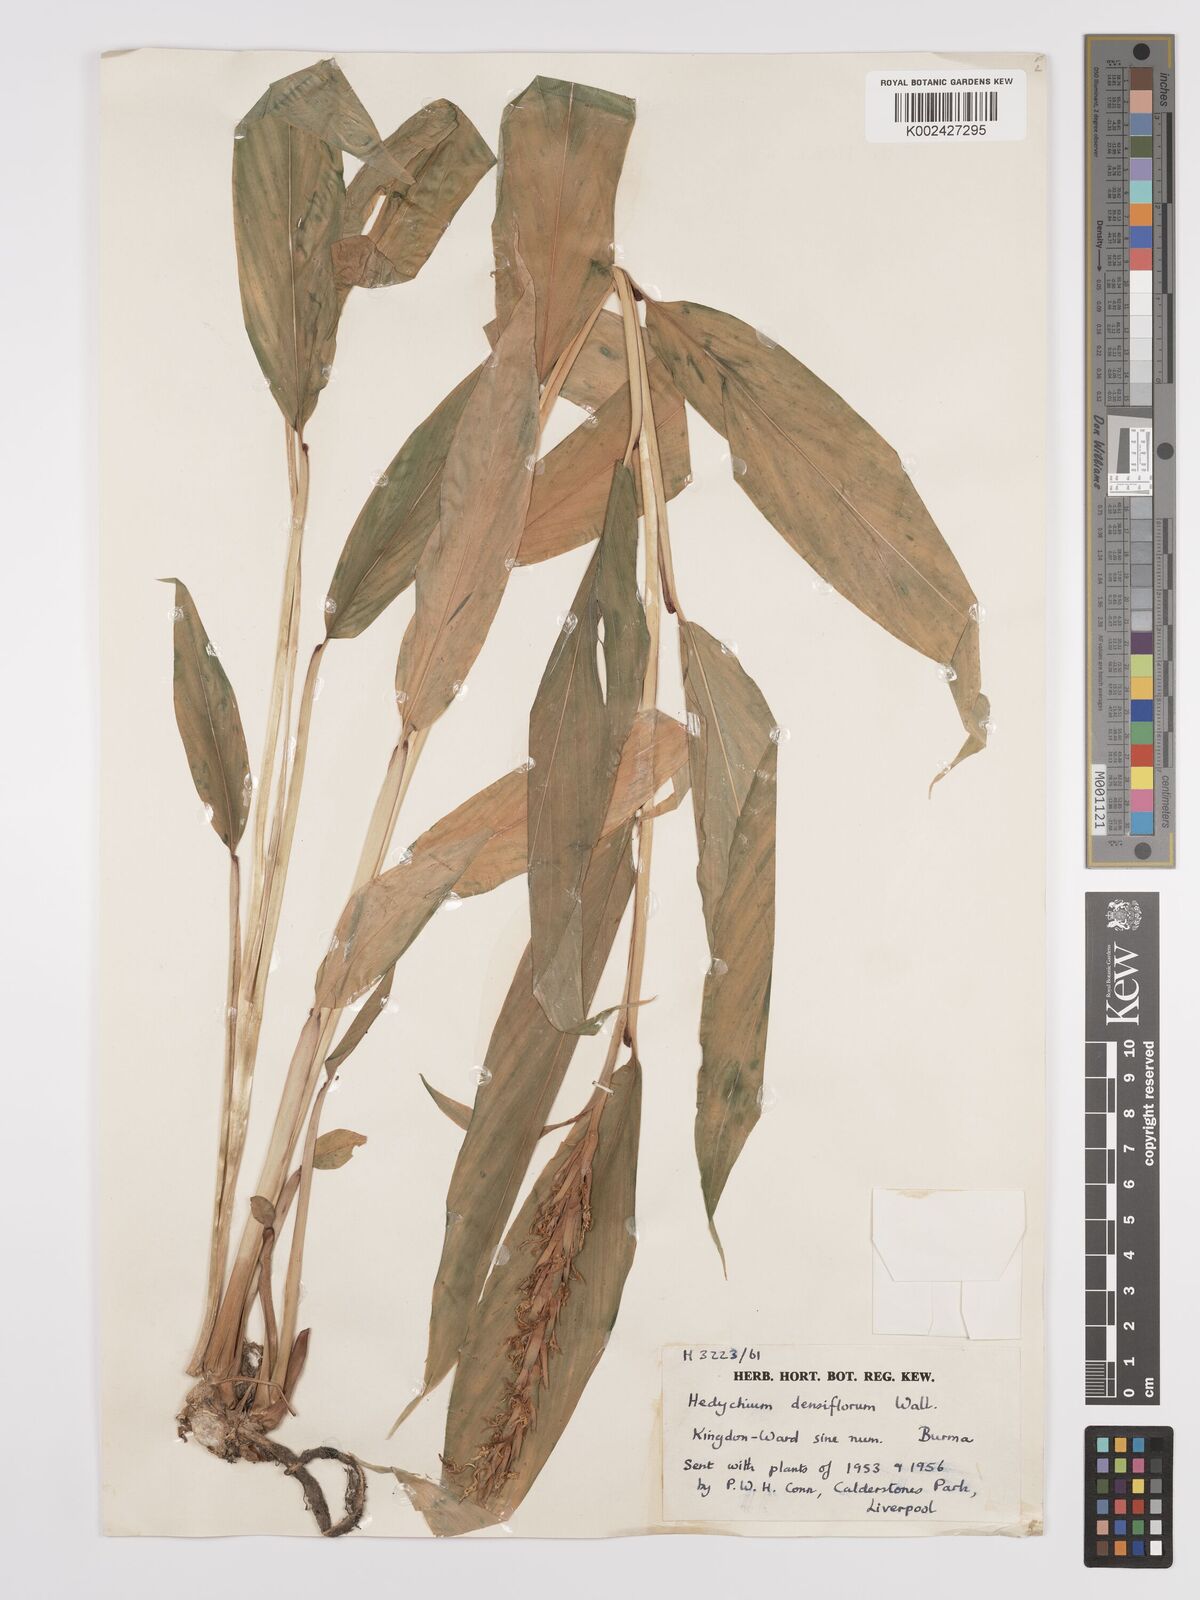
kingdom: Plantae
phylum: Tracheophyta
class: Liliopsida
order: Zingiberales
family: Zingiberaceae
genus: Hedychium
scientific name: Hedychium densiflorum
